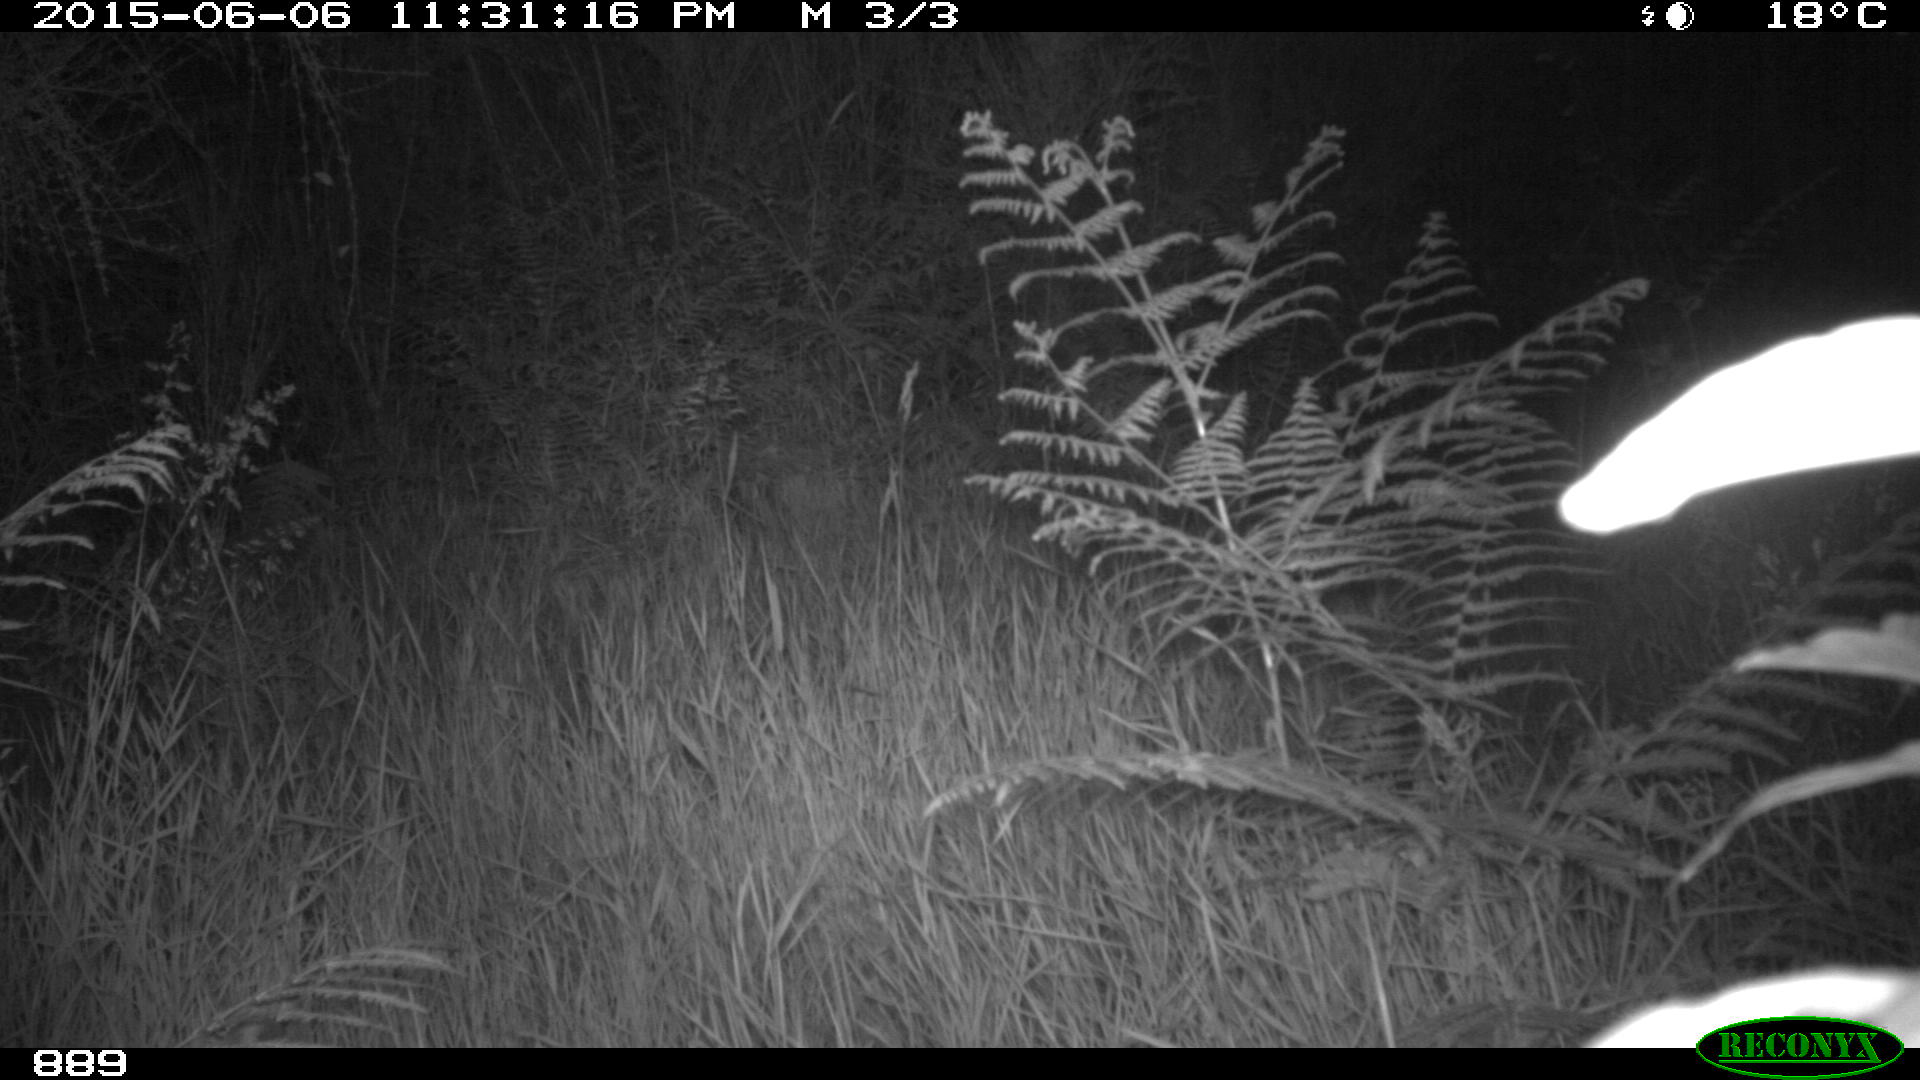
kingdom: Animalia
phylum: Chordata
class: Mammalia
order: Carnivora
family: Canidae
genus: Vulpes
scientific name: Vulpes vulpes
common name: Red fox
